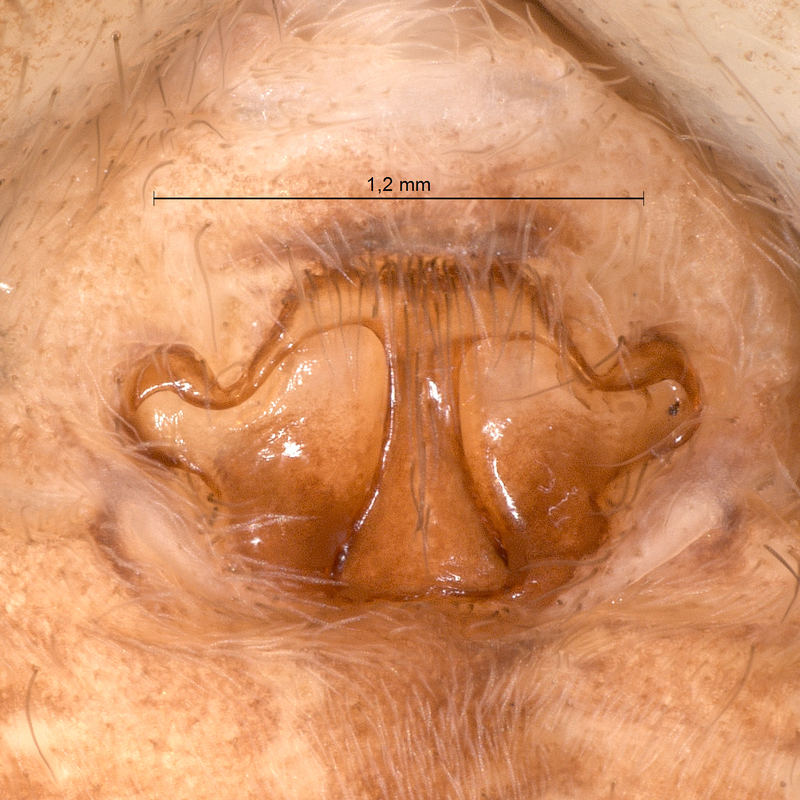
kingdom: Animalia
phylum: Arthropoda
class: Arachnida
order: Araneae
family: Lycosidae
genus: Pardosa
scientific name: Pardosa pullata
